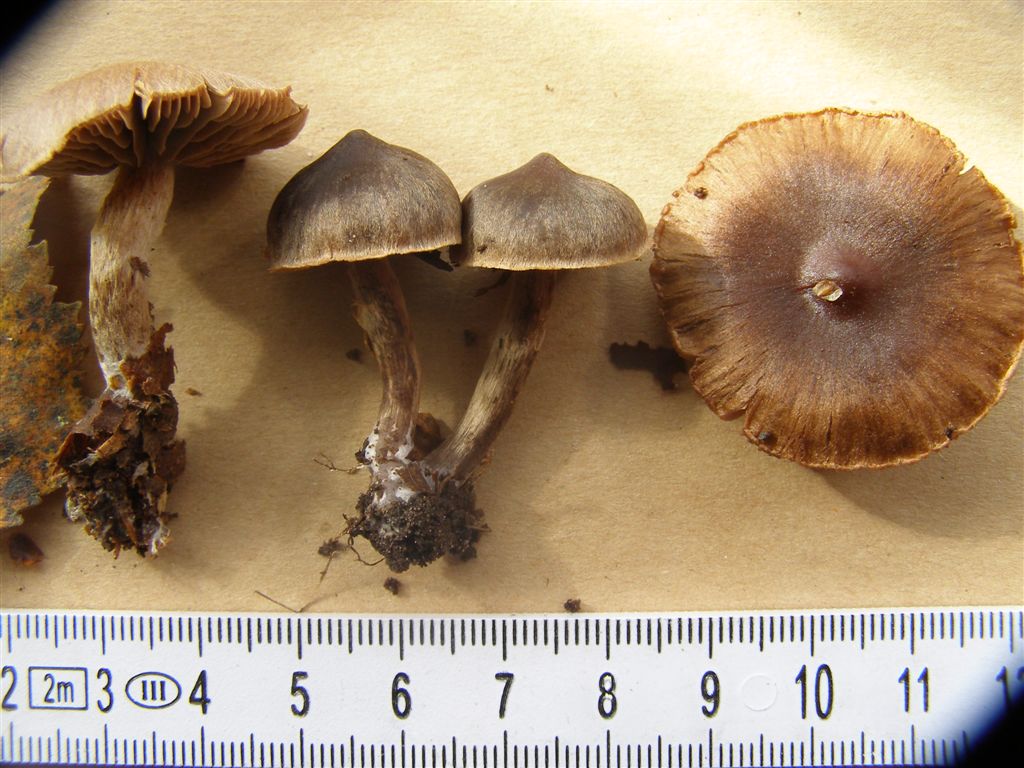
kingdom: Fungi
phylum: Basidiomycota
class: Agaricomycetes
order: Agaricales
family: Cortinariaceae
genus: Cortinarius
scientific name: Cortinarius umbrinolens
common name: mørk slørhat
